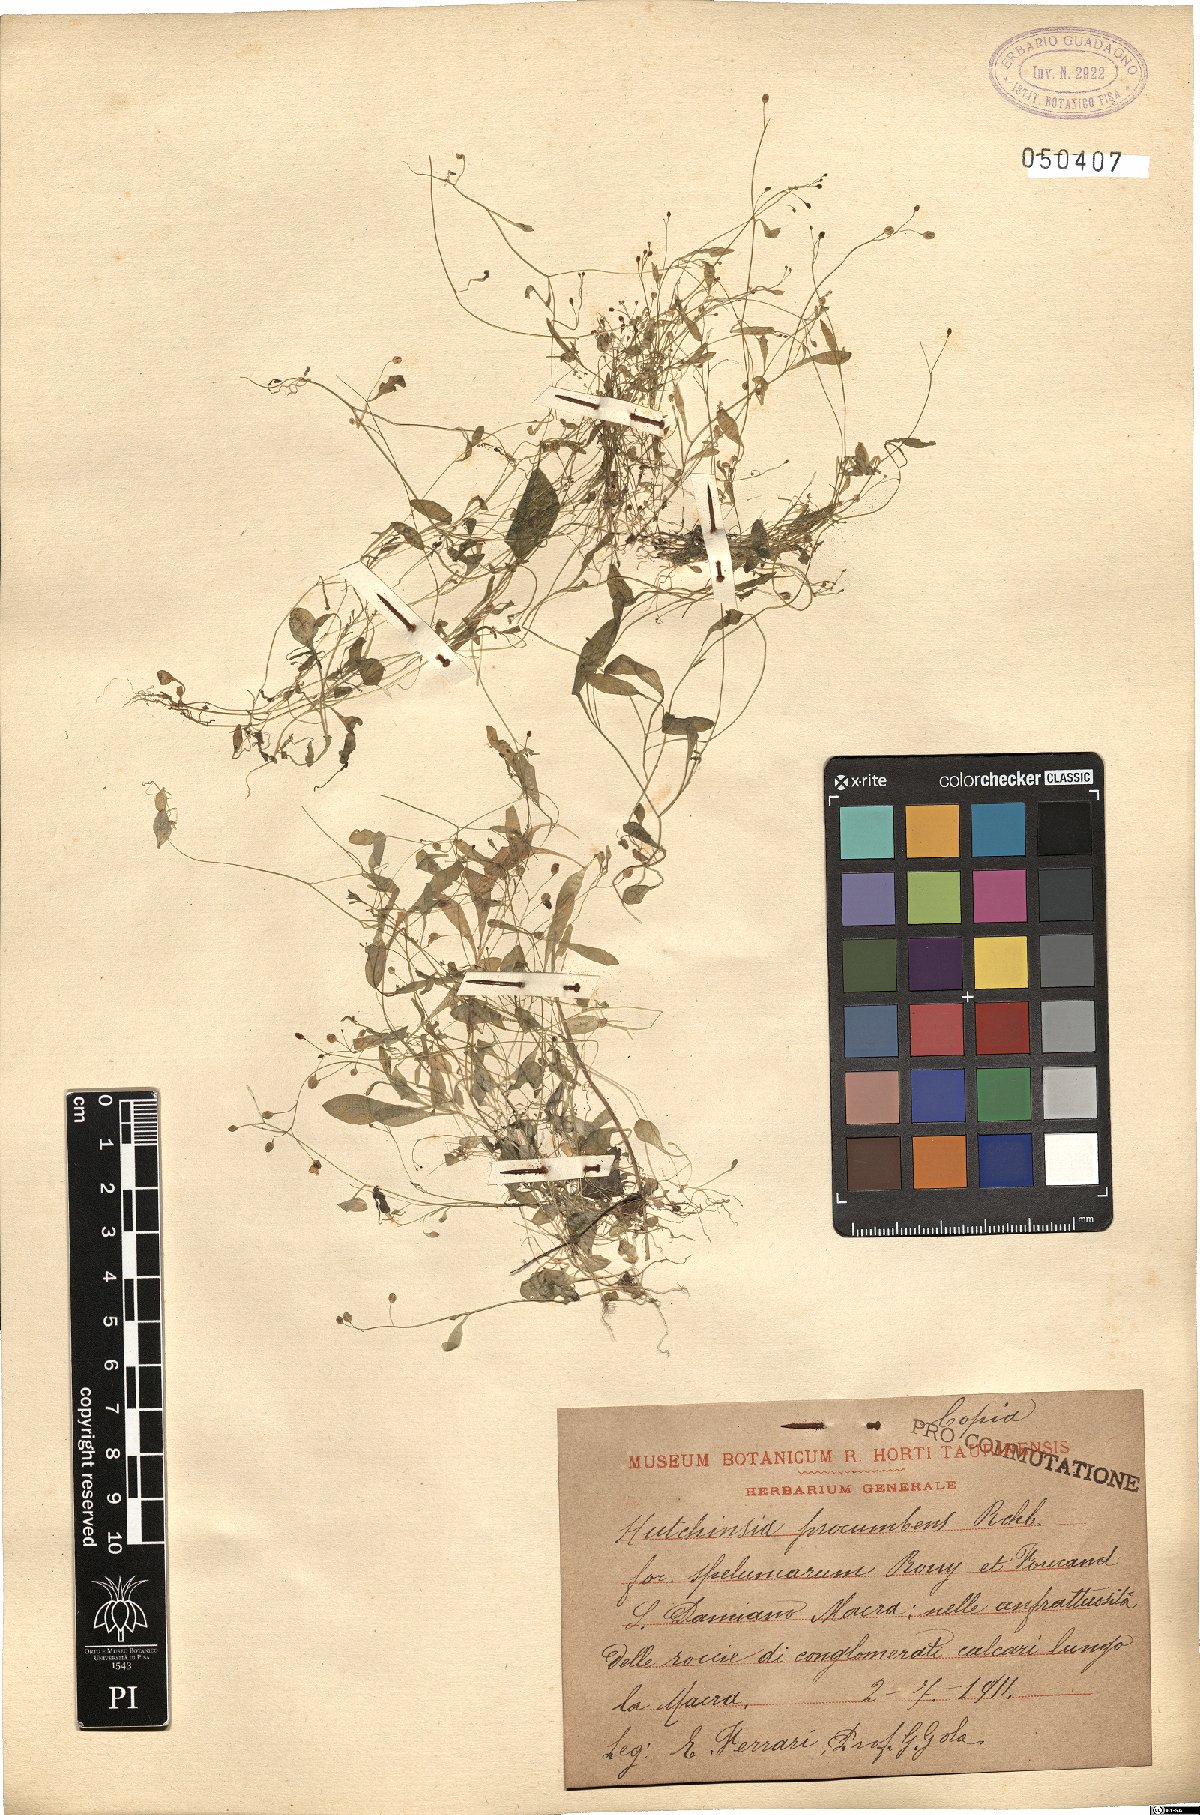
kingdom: Plantae
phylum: Tracheophyta
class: Magnoliopsida
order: Brassicales
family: Brassicaceae
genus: Hornungia
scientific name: Hornungia procumbens
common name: Oval purse
